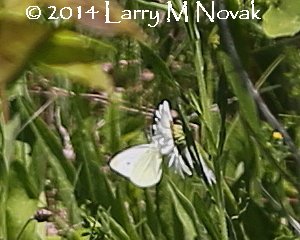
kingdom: Animalia
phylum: Arthropoda
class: Insecta
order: Lepidoptera
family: Pieridae
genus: Pieris
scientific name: Pieris rapae
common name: Cabbage White
